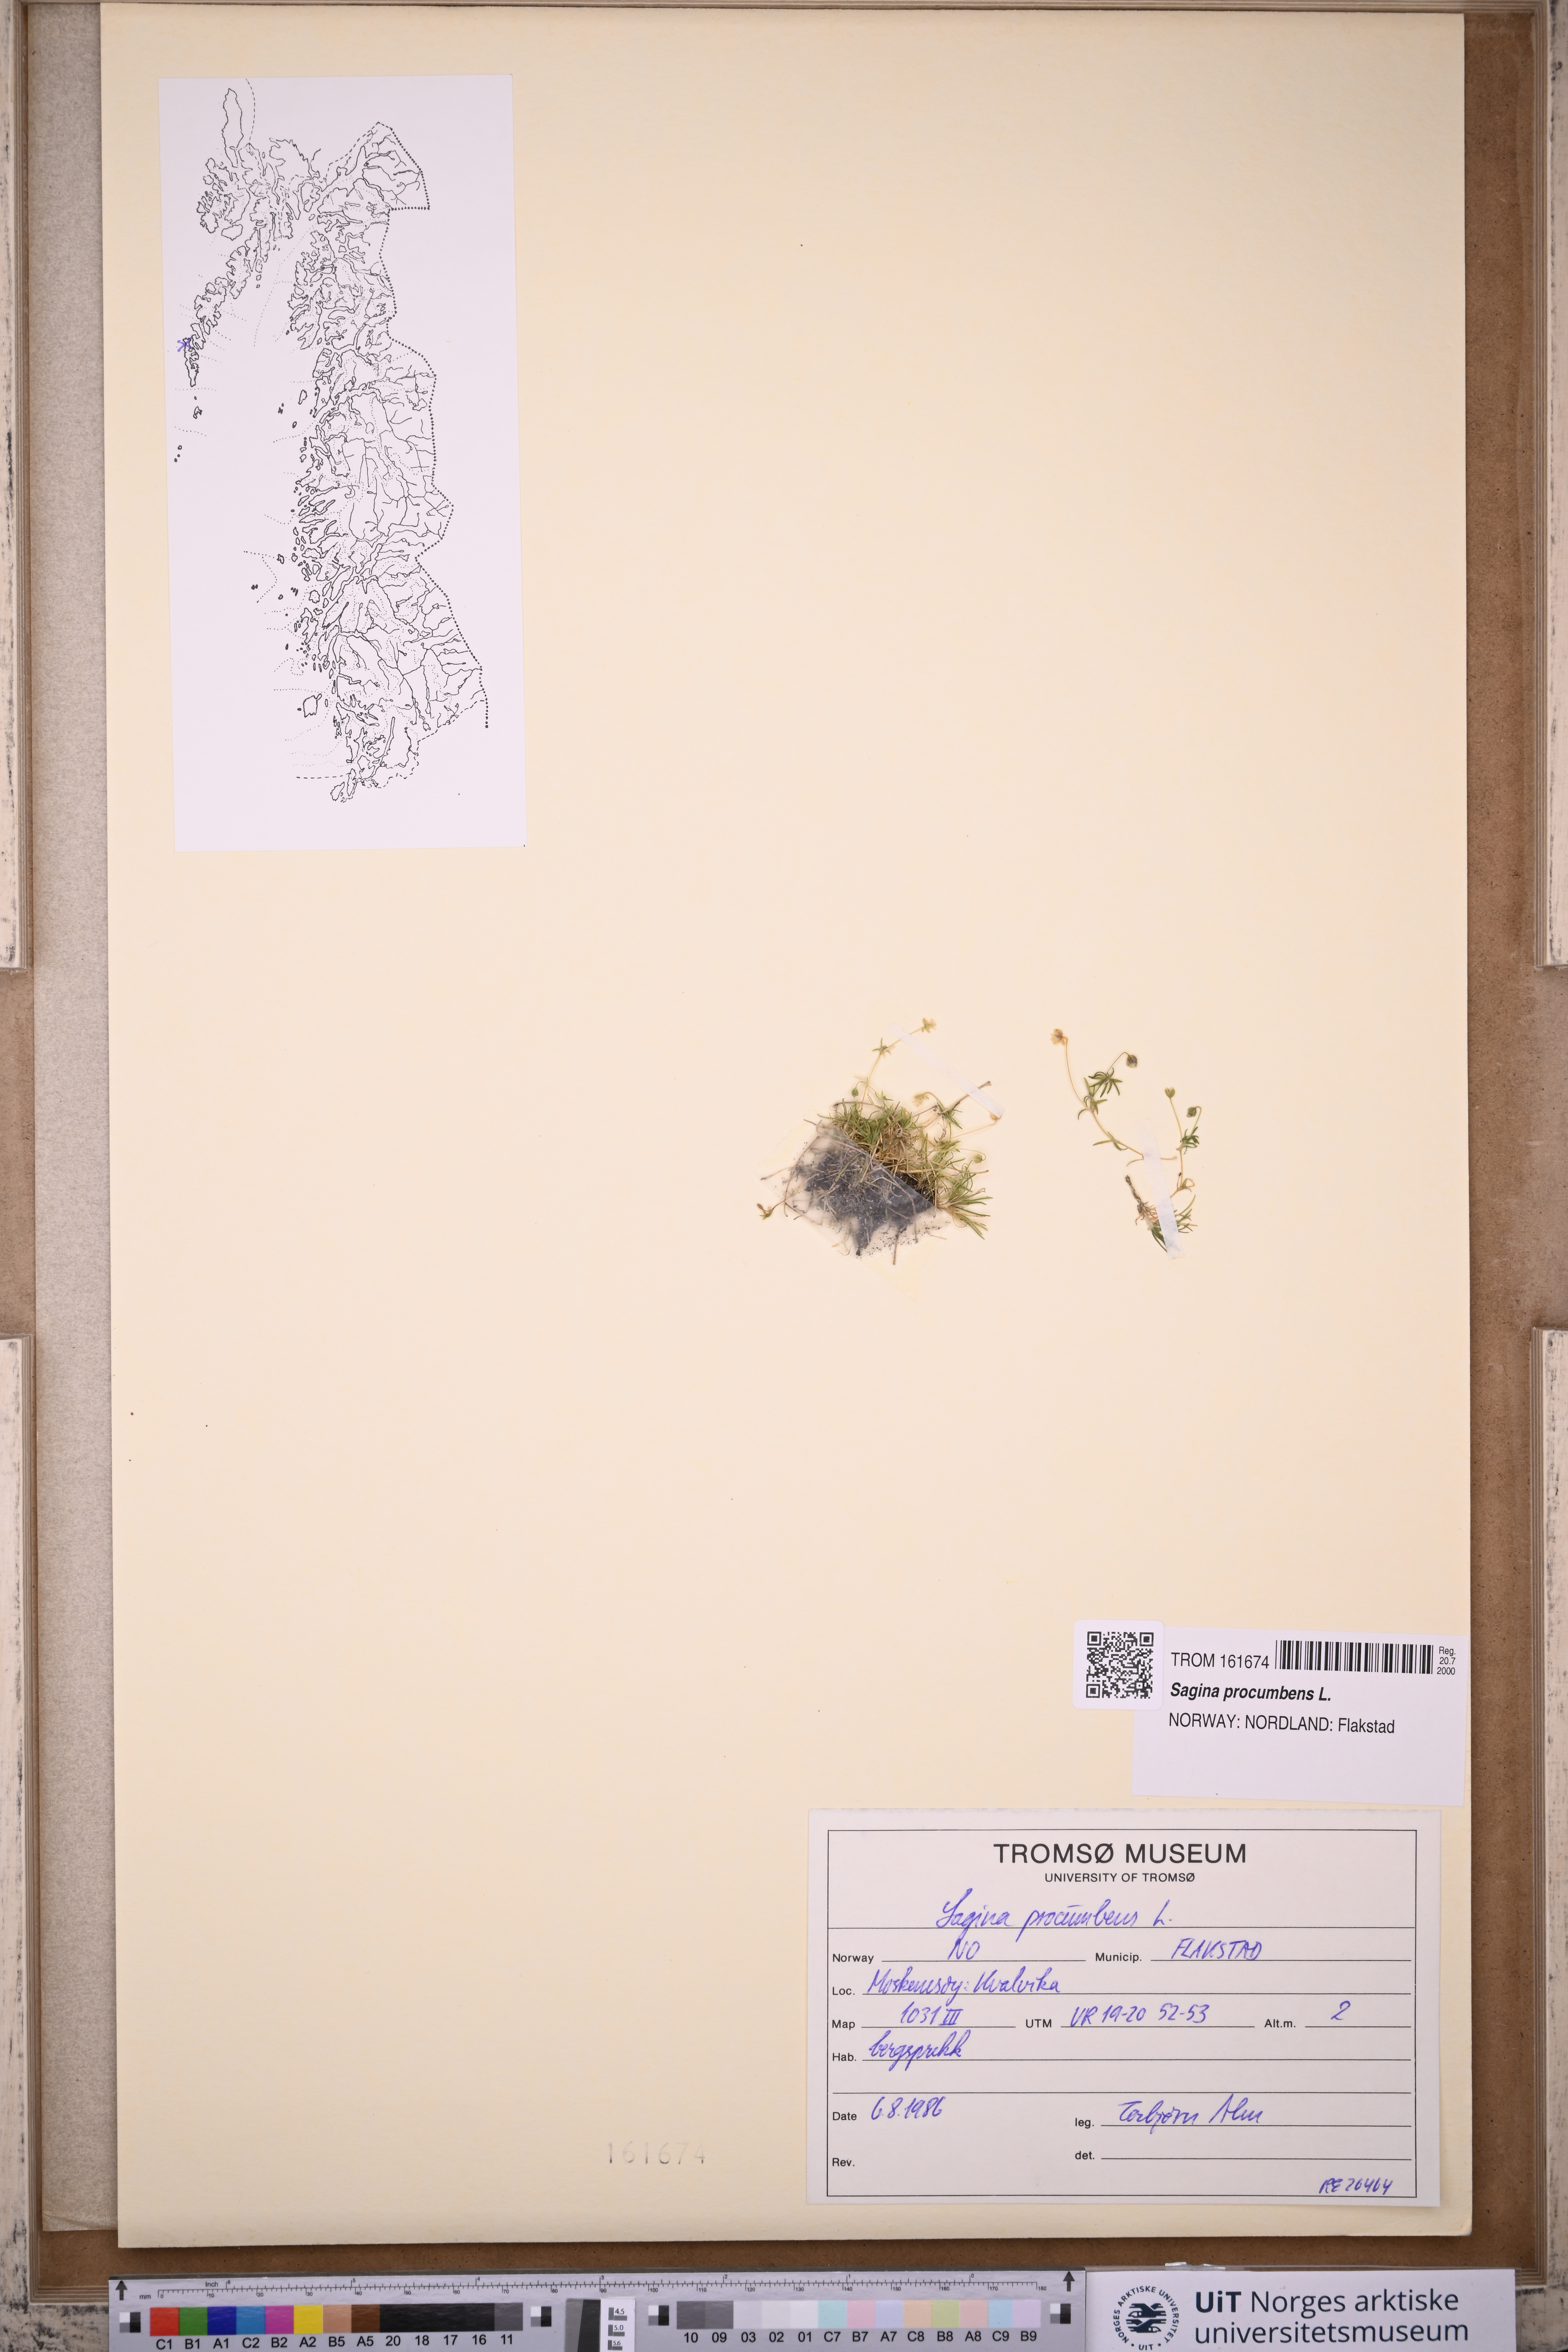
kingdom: Plantae
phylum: Tracheophyta
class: Magnoliopsida
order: Caryophyllales
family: Caryophyllaceae
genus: Sagina
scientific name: Sagina procumbens
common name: Procumbent pearlwort
